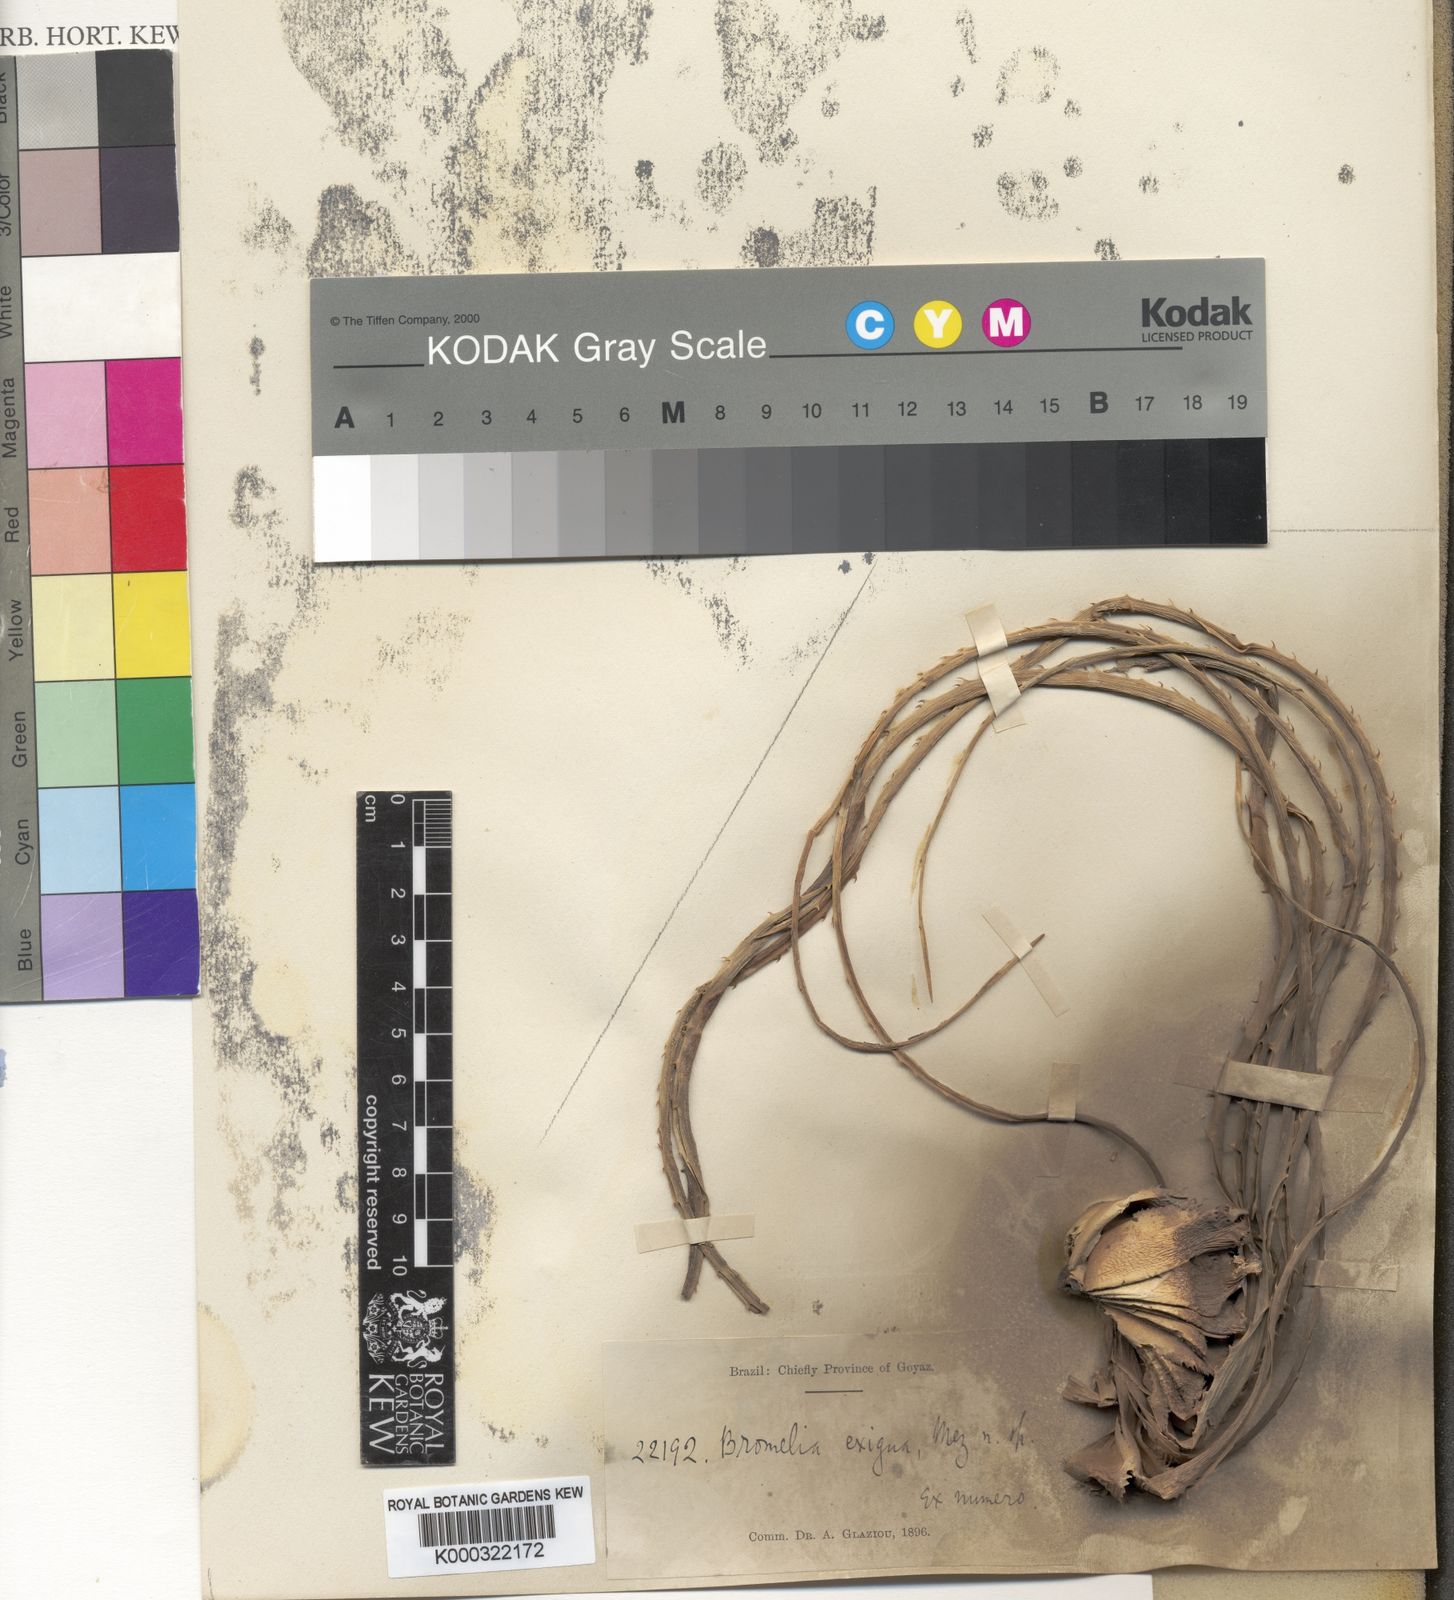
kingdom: Plantae
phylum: Tracheophyta
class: Liliopsida
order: Poales
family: Bromeliaceae
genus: Bromelia
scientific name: Bromelia exigua
